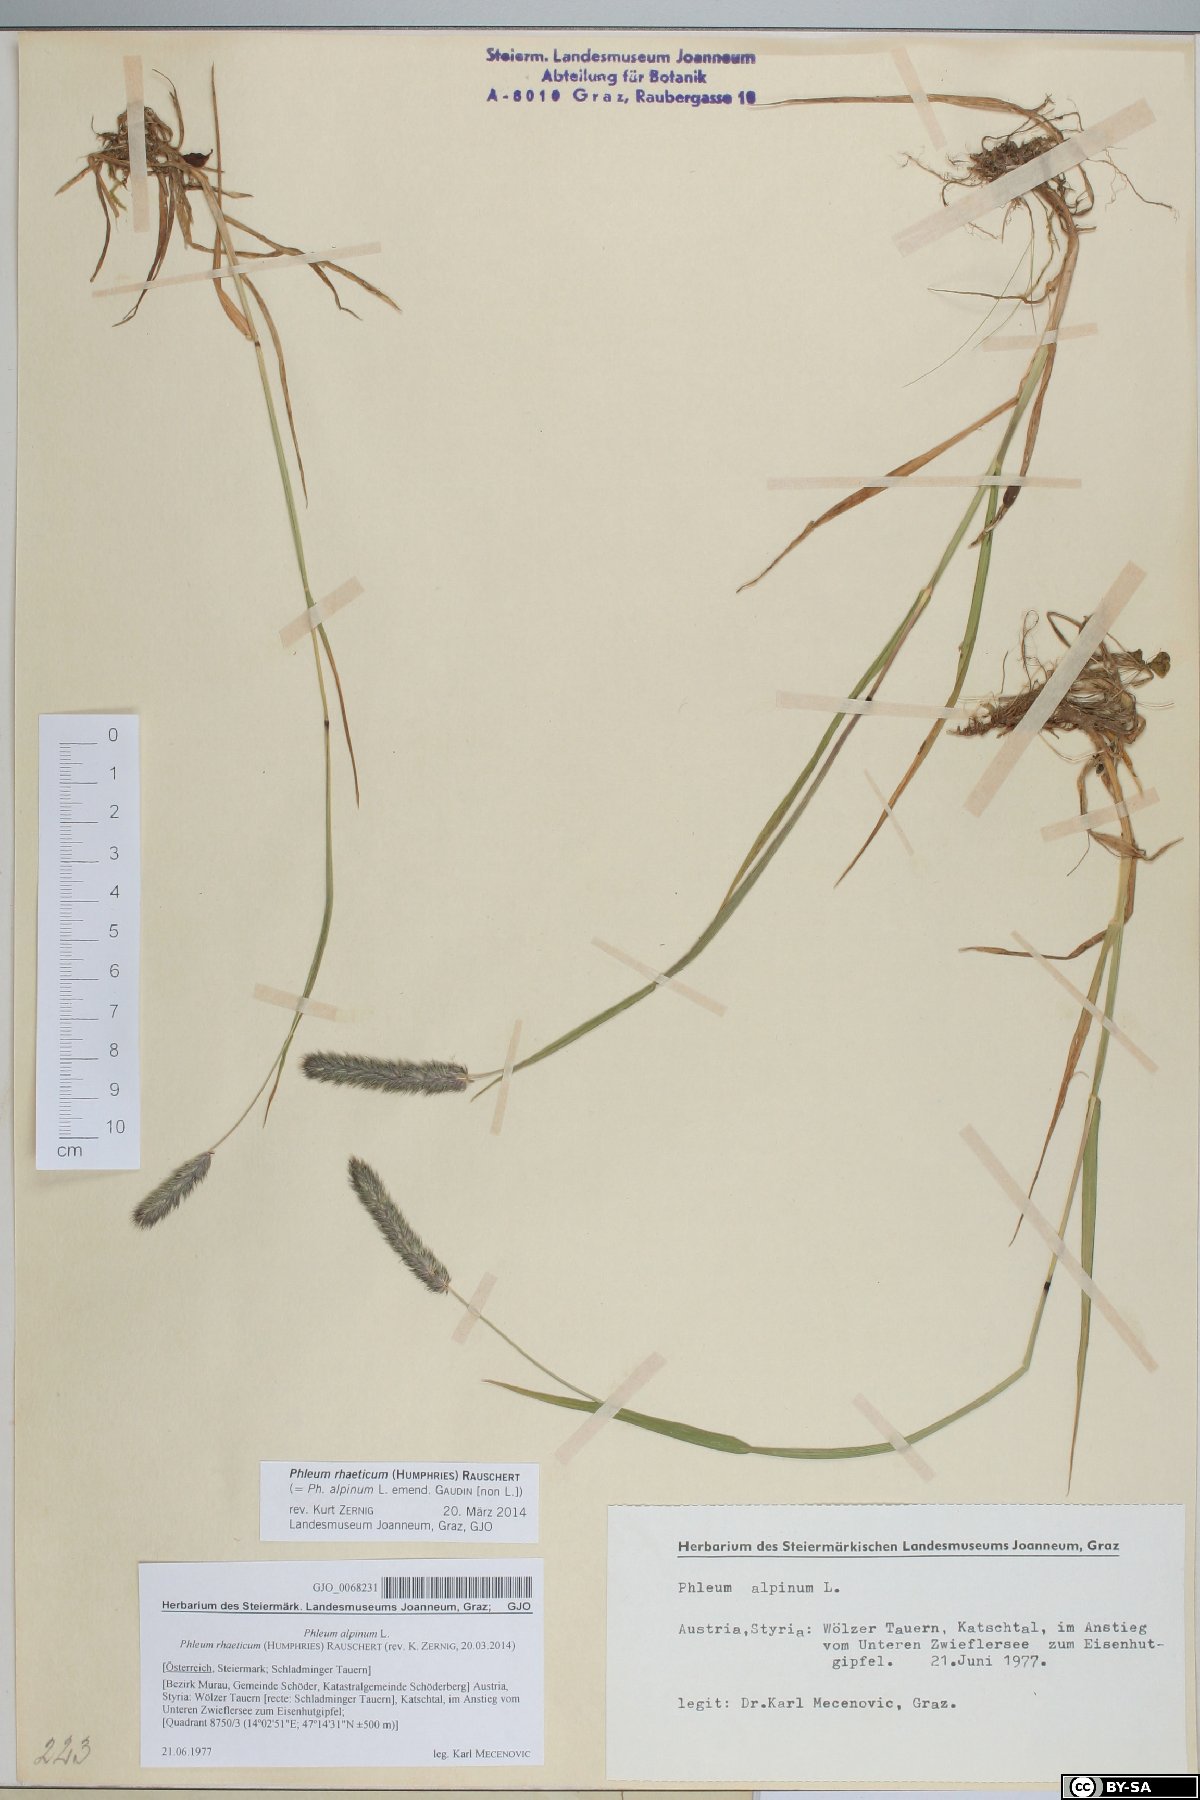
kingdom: Plantae
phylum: Tracheophyta
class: Liliopsida
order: Poales
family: Poaceae
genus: Phleum
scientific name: Phleum alpinum
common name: Alpine cat's-tail
